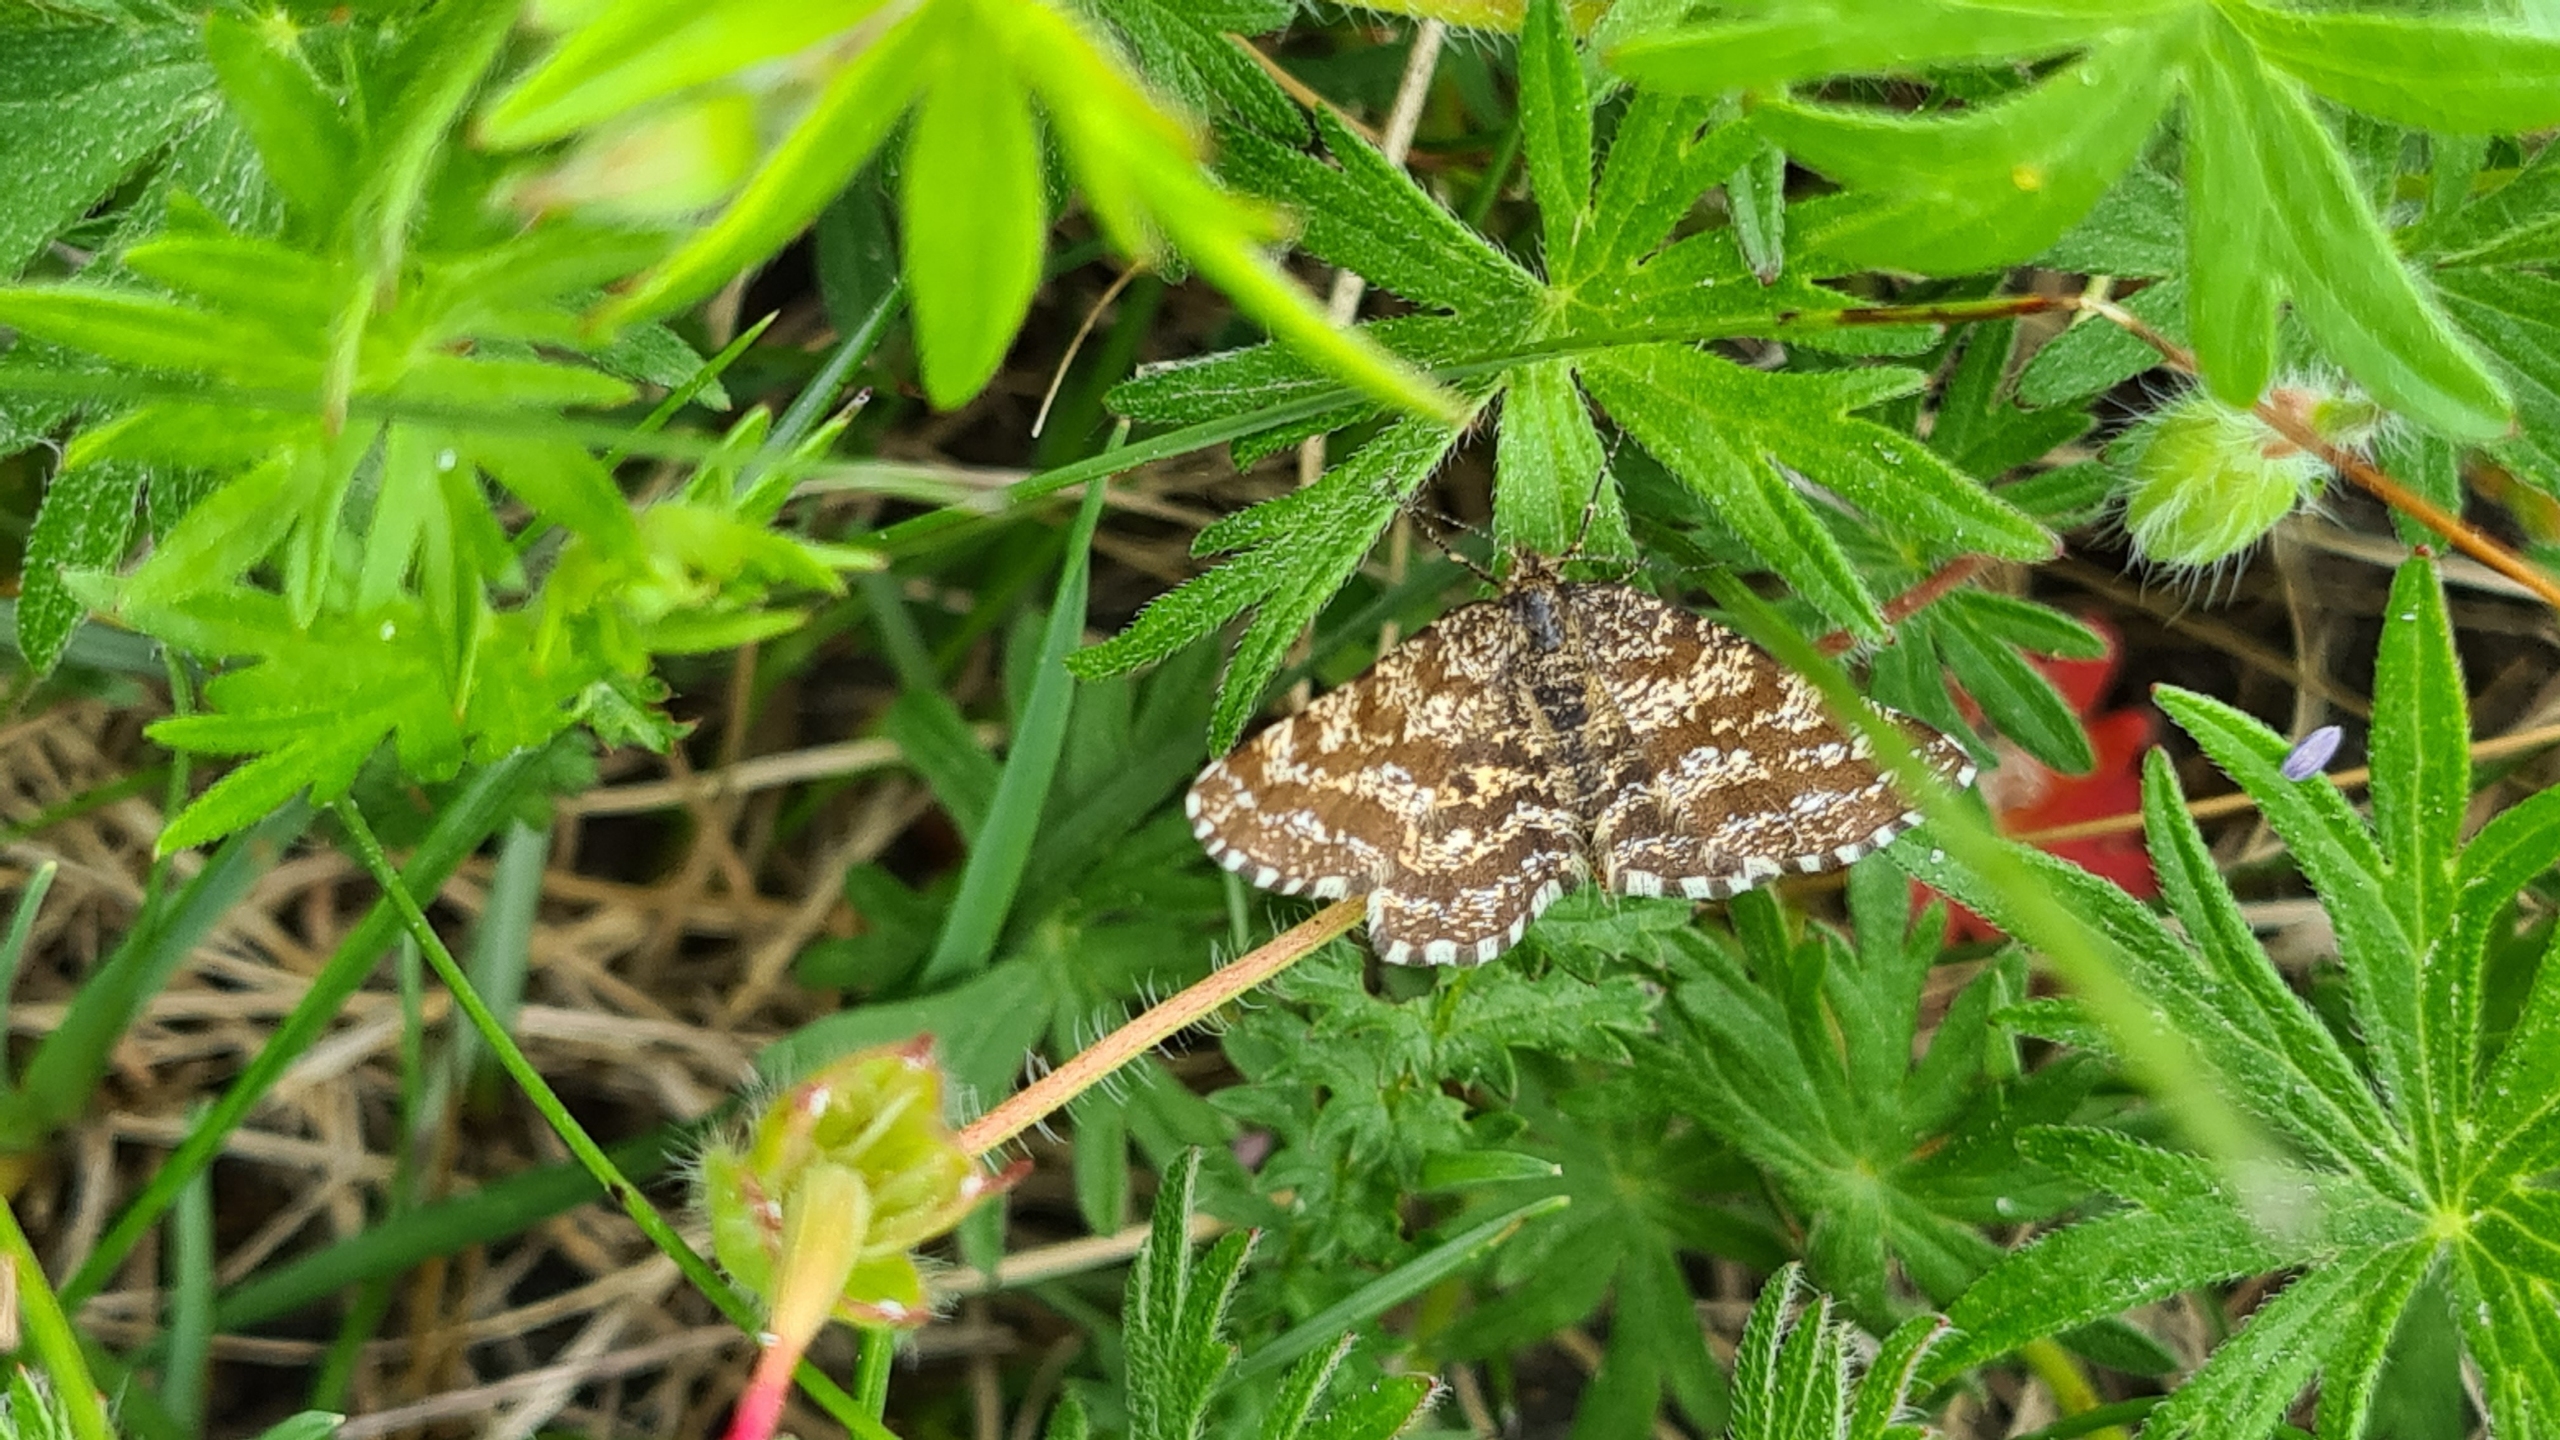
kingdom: Animalia
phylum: Arthropoda
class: Insecta
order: Lepidoptera
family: Geometridae
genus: Ematurga
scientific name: Ematurga atomaria
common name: Lyngmåler
